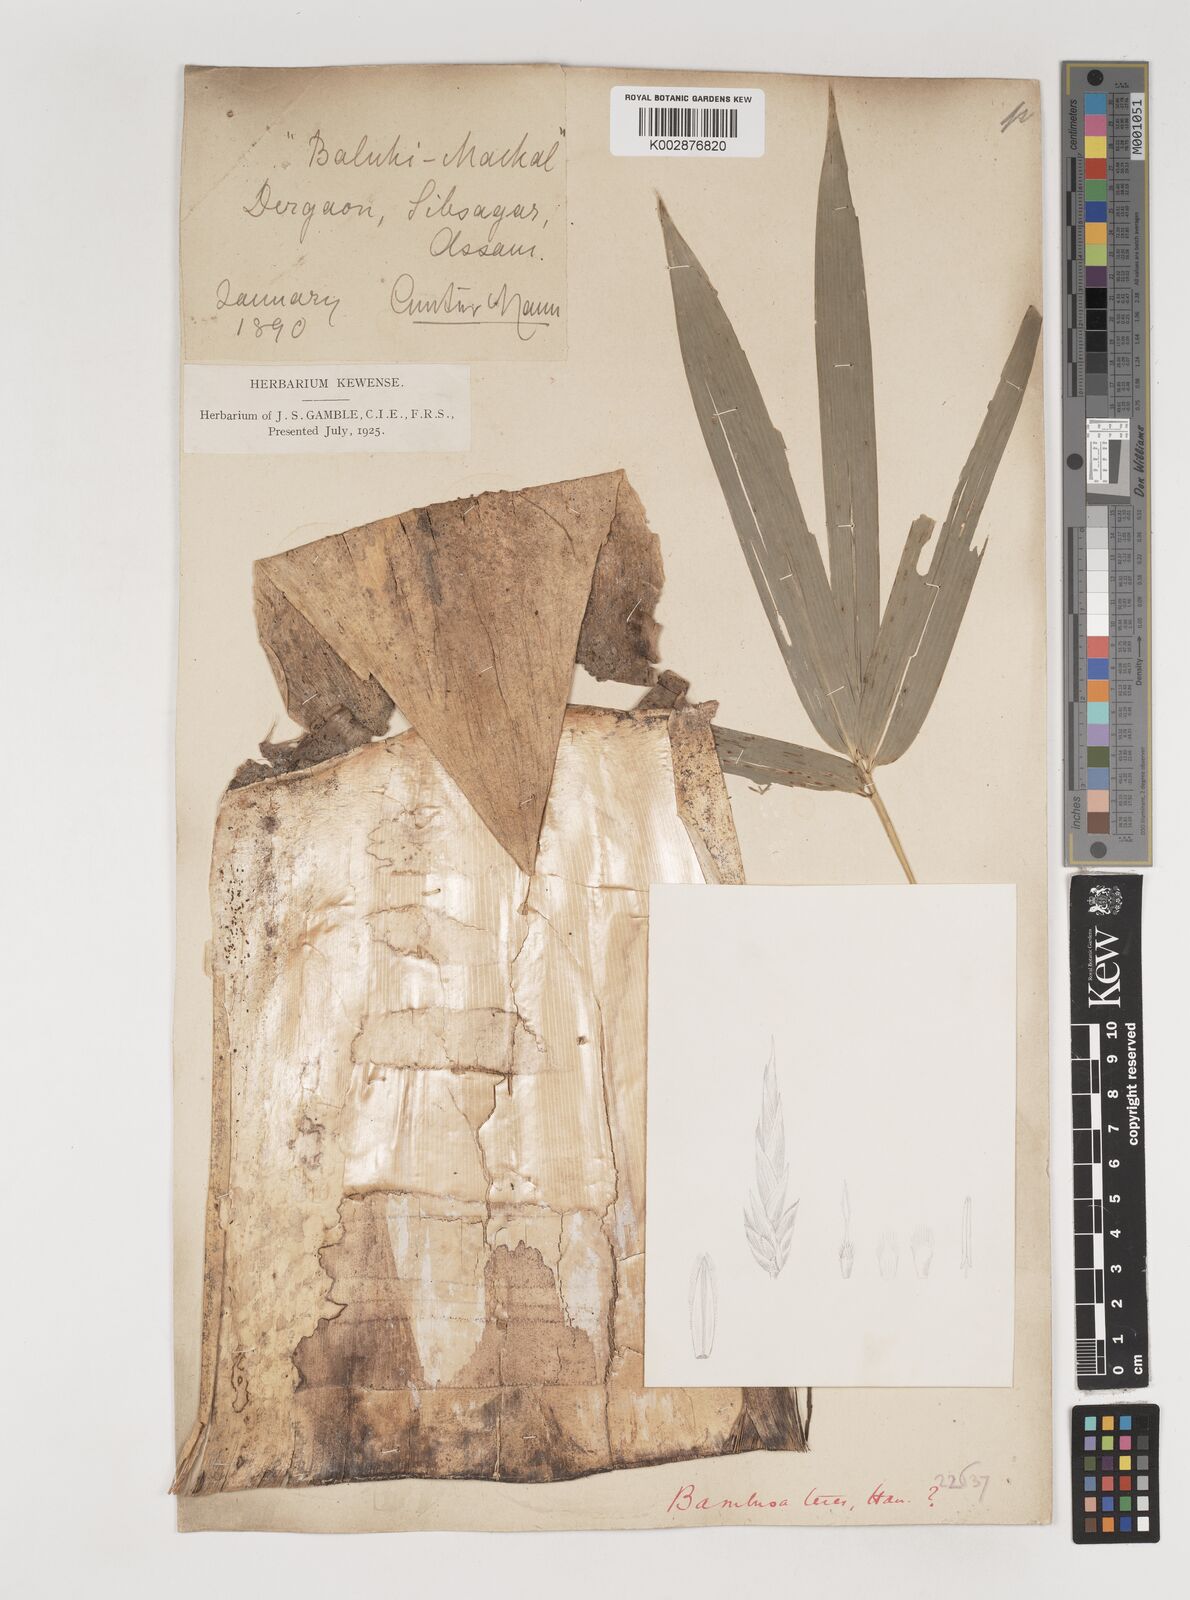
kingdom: Plantae
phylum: Tracheophyta
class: Liliopsida
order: Poales
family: Poaceae
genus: Bambusa
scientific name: Bambusa teres
